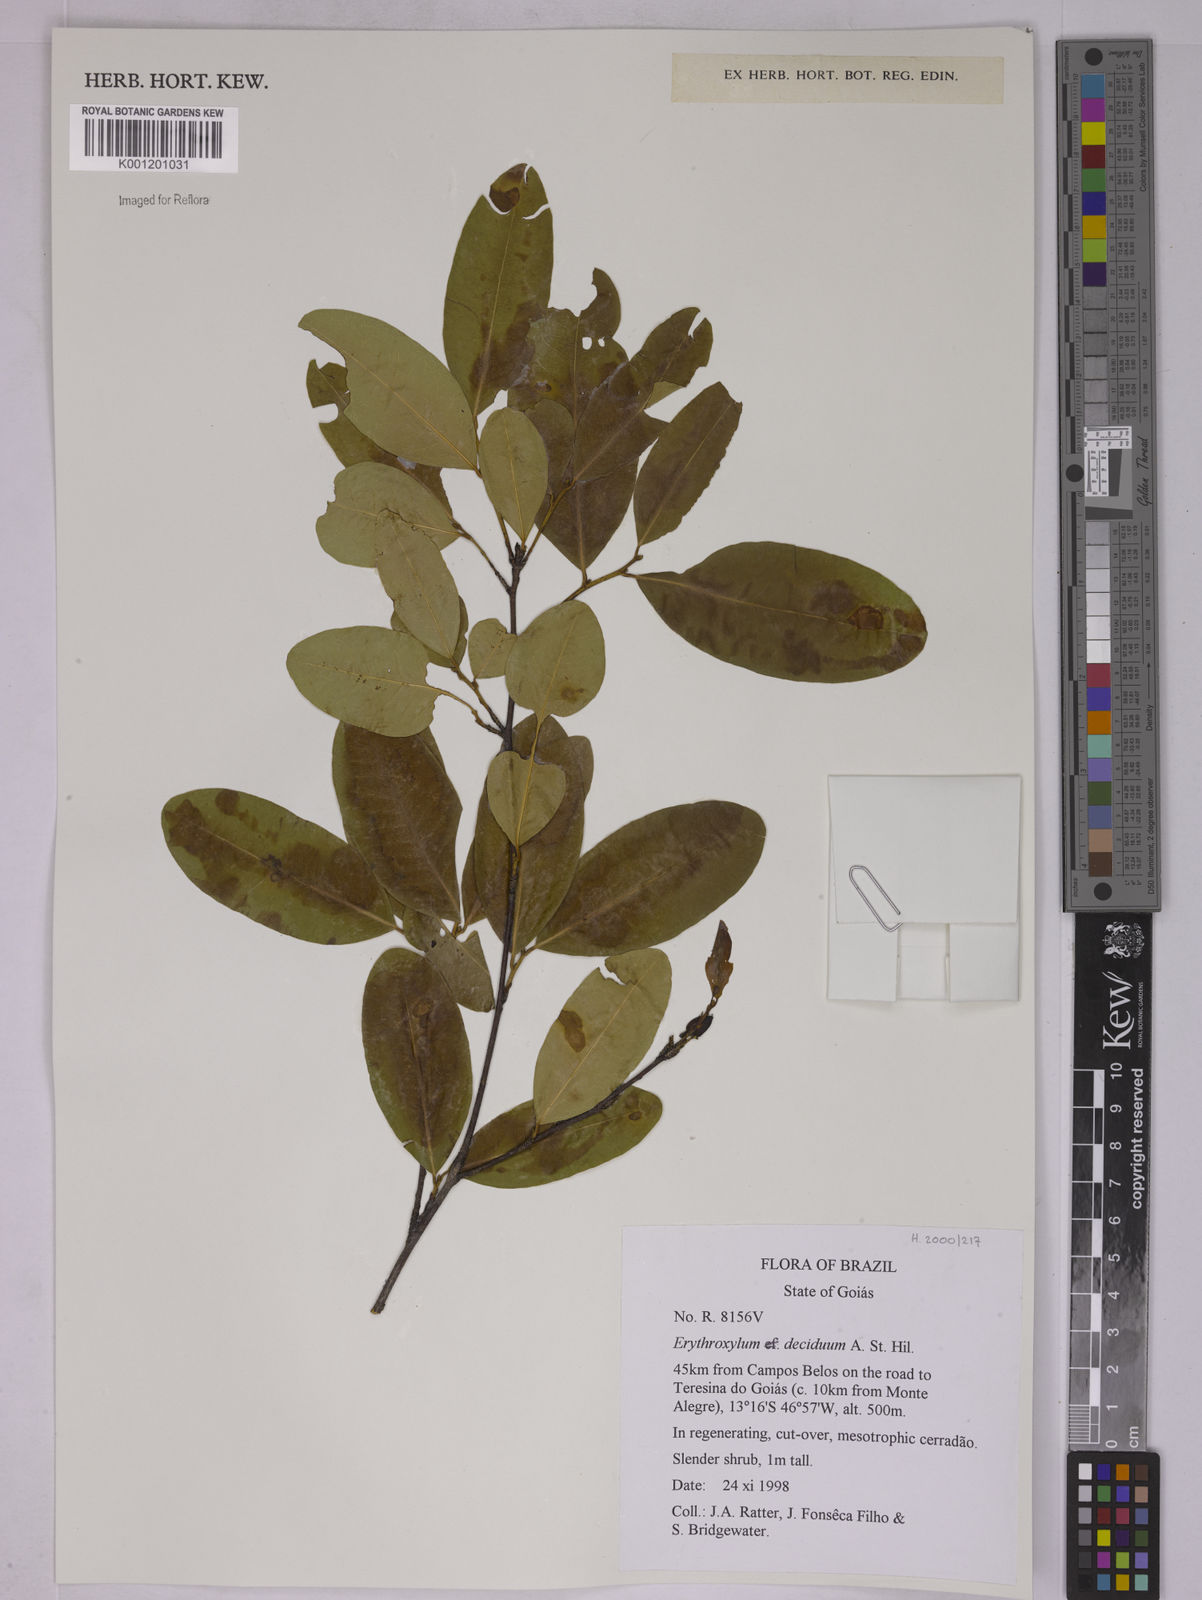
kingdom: Plantae
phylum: Tracheophyta
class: Magnoliopsida
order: Malpighiales
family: Erythroxylaceae
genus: Erythroxylum
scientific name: Erythroxylum deciduum
